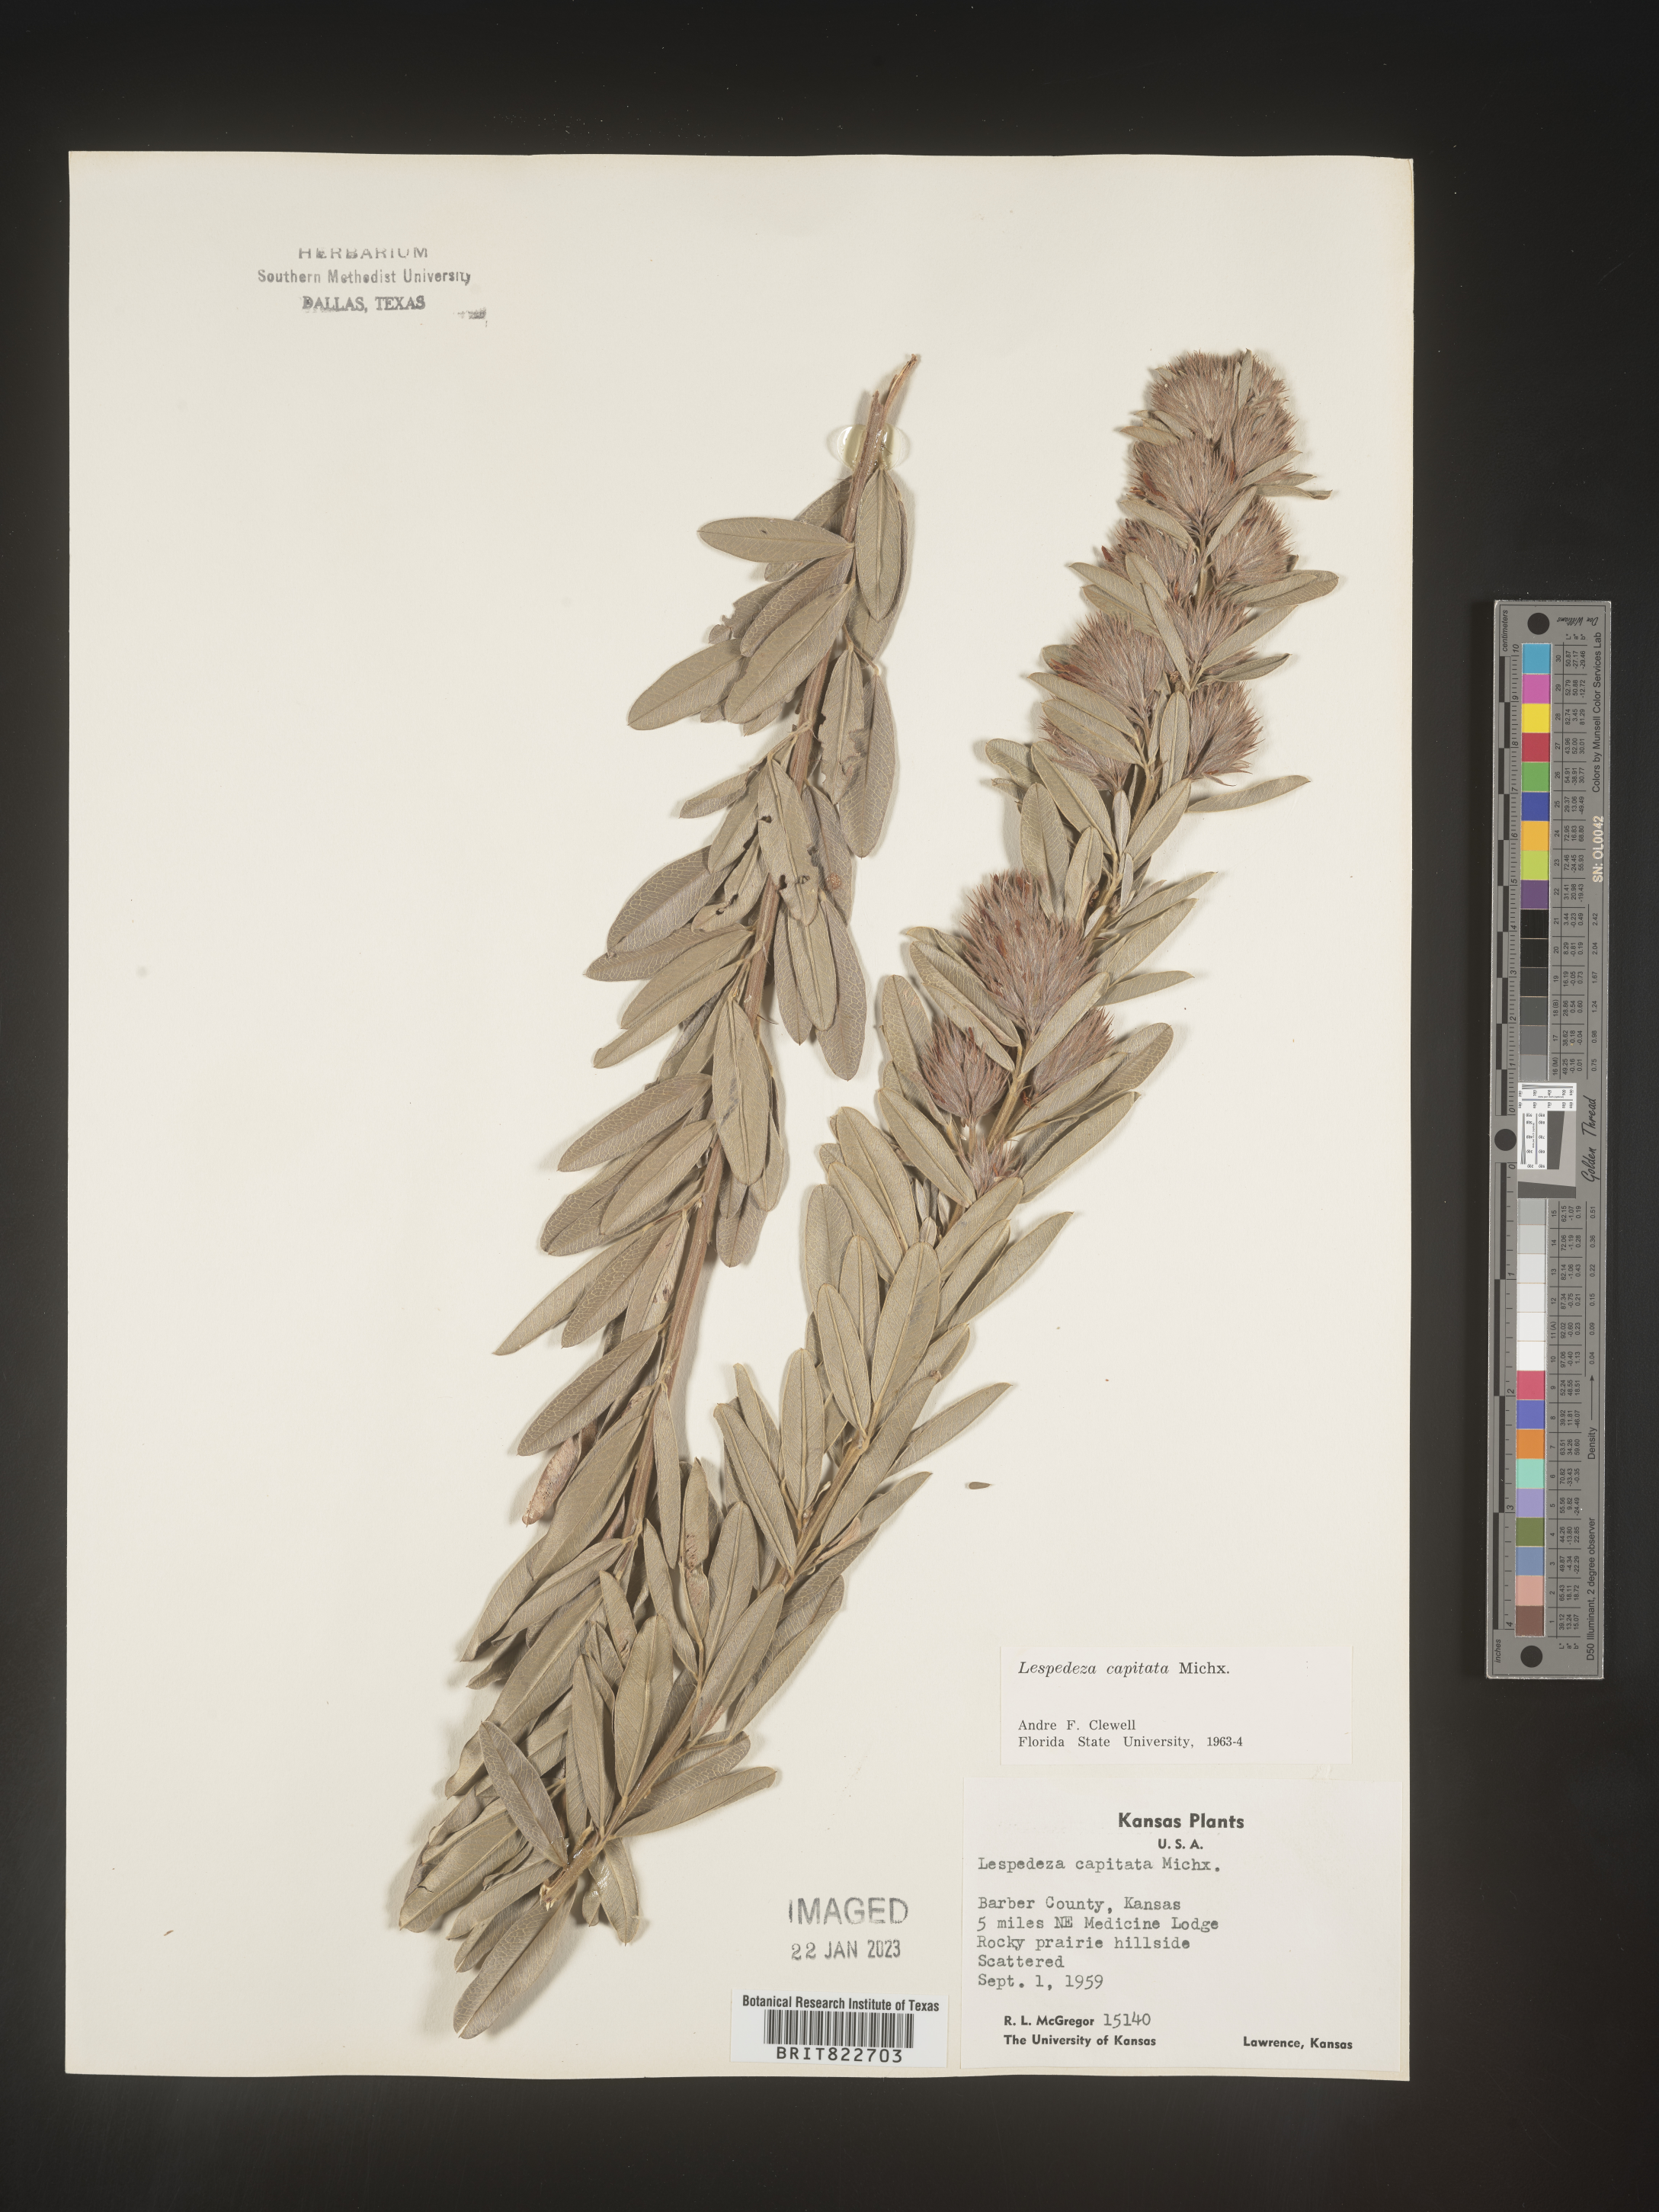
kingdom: Plantae
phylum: Tracheophyta
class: Magnoliopsida
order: Fabales
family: Fabaceae
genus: Lespedeza
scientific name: Lespedeza capitata
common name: Dusty clover
